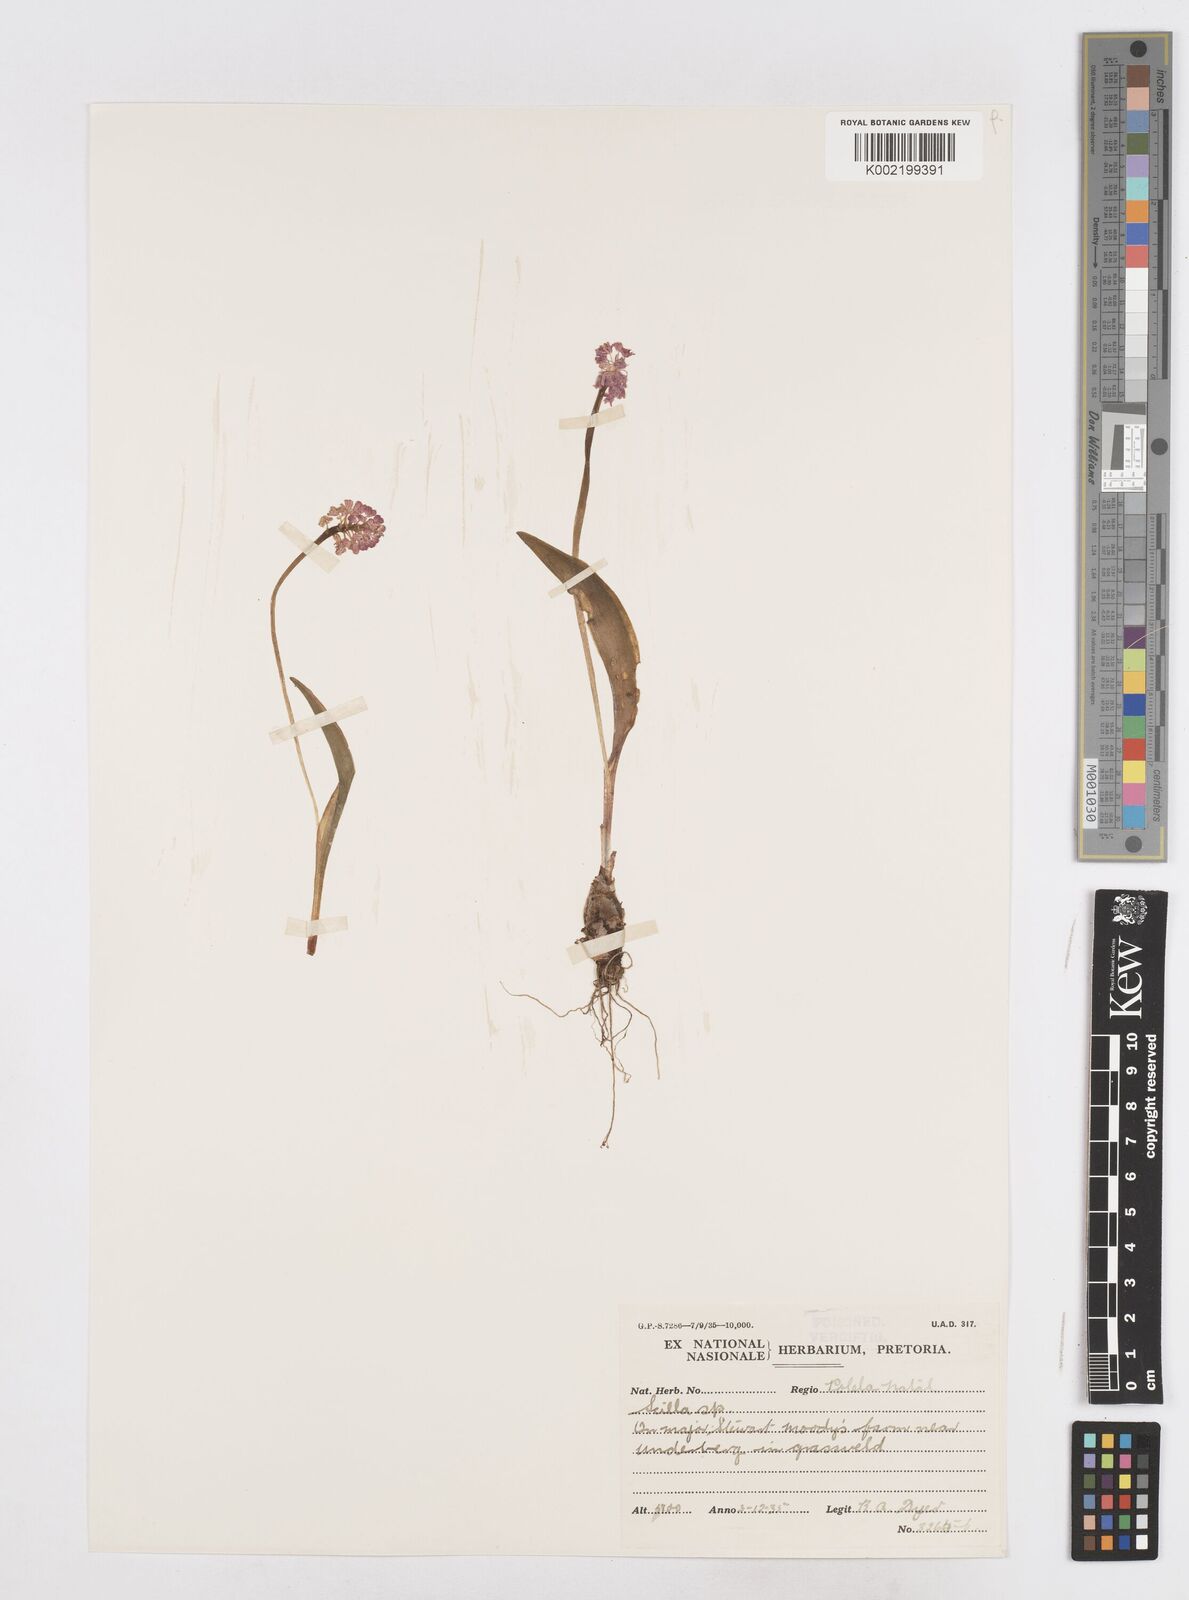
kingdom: Plantae
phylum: Tracheophyta
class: Liliopsida
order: Asparagales
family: Asparagaceae
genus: Schizocarphus
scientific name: Schizocarphus nervosus
